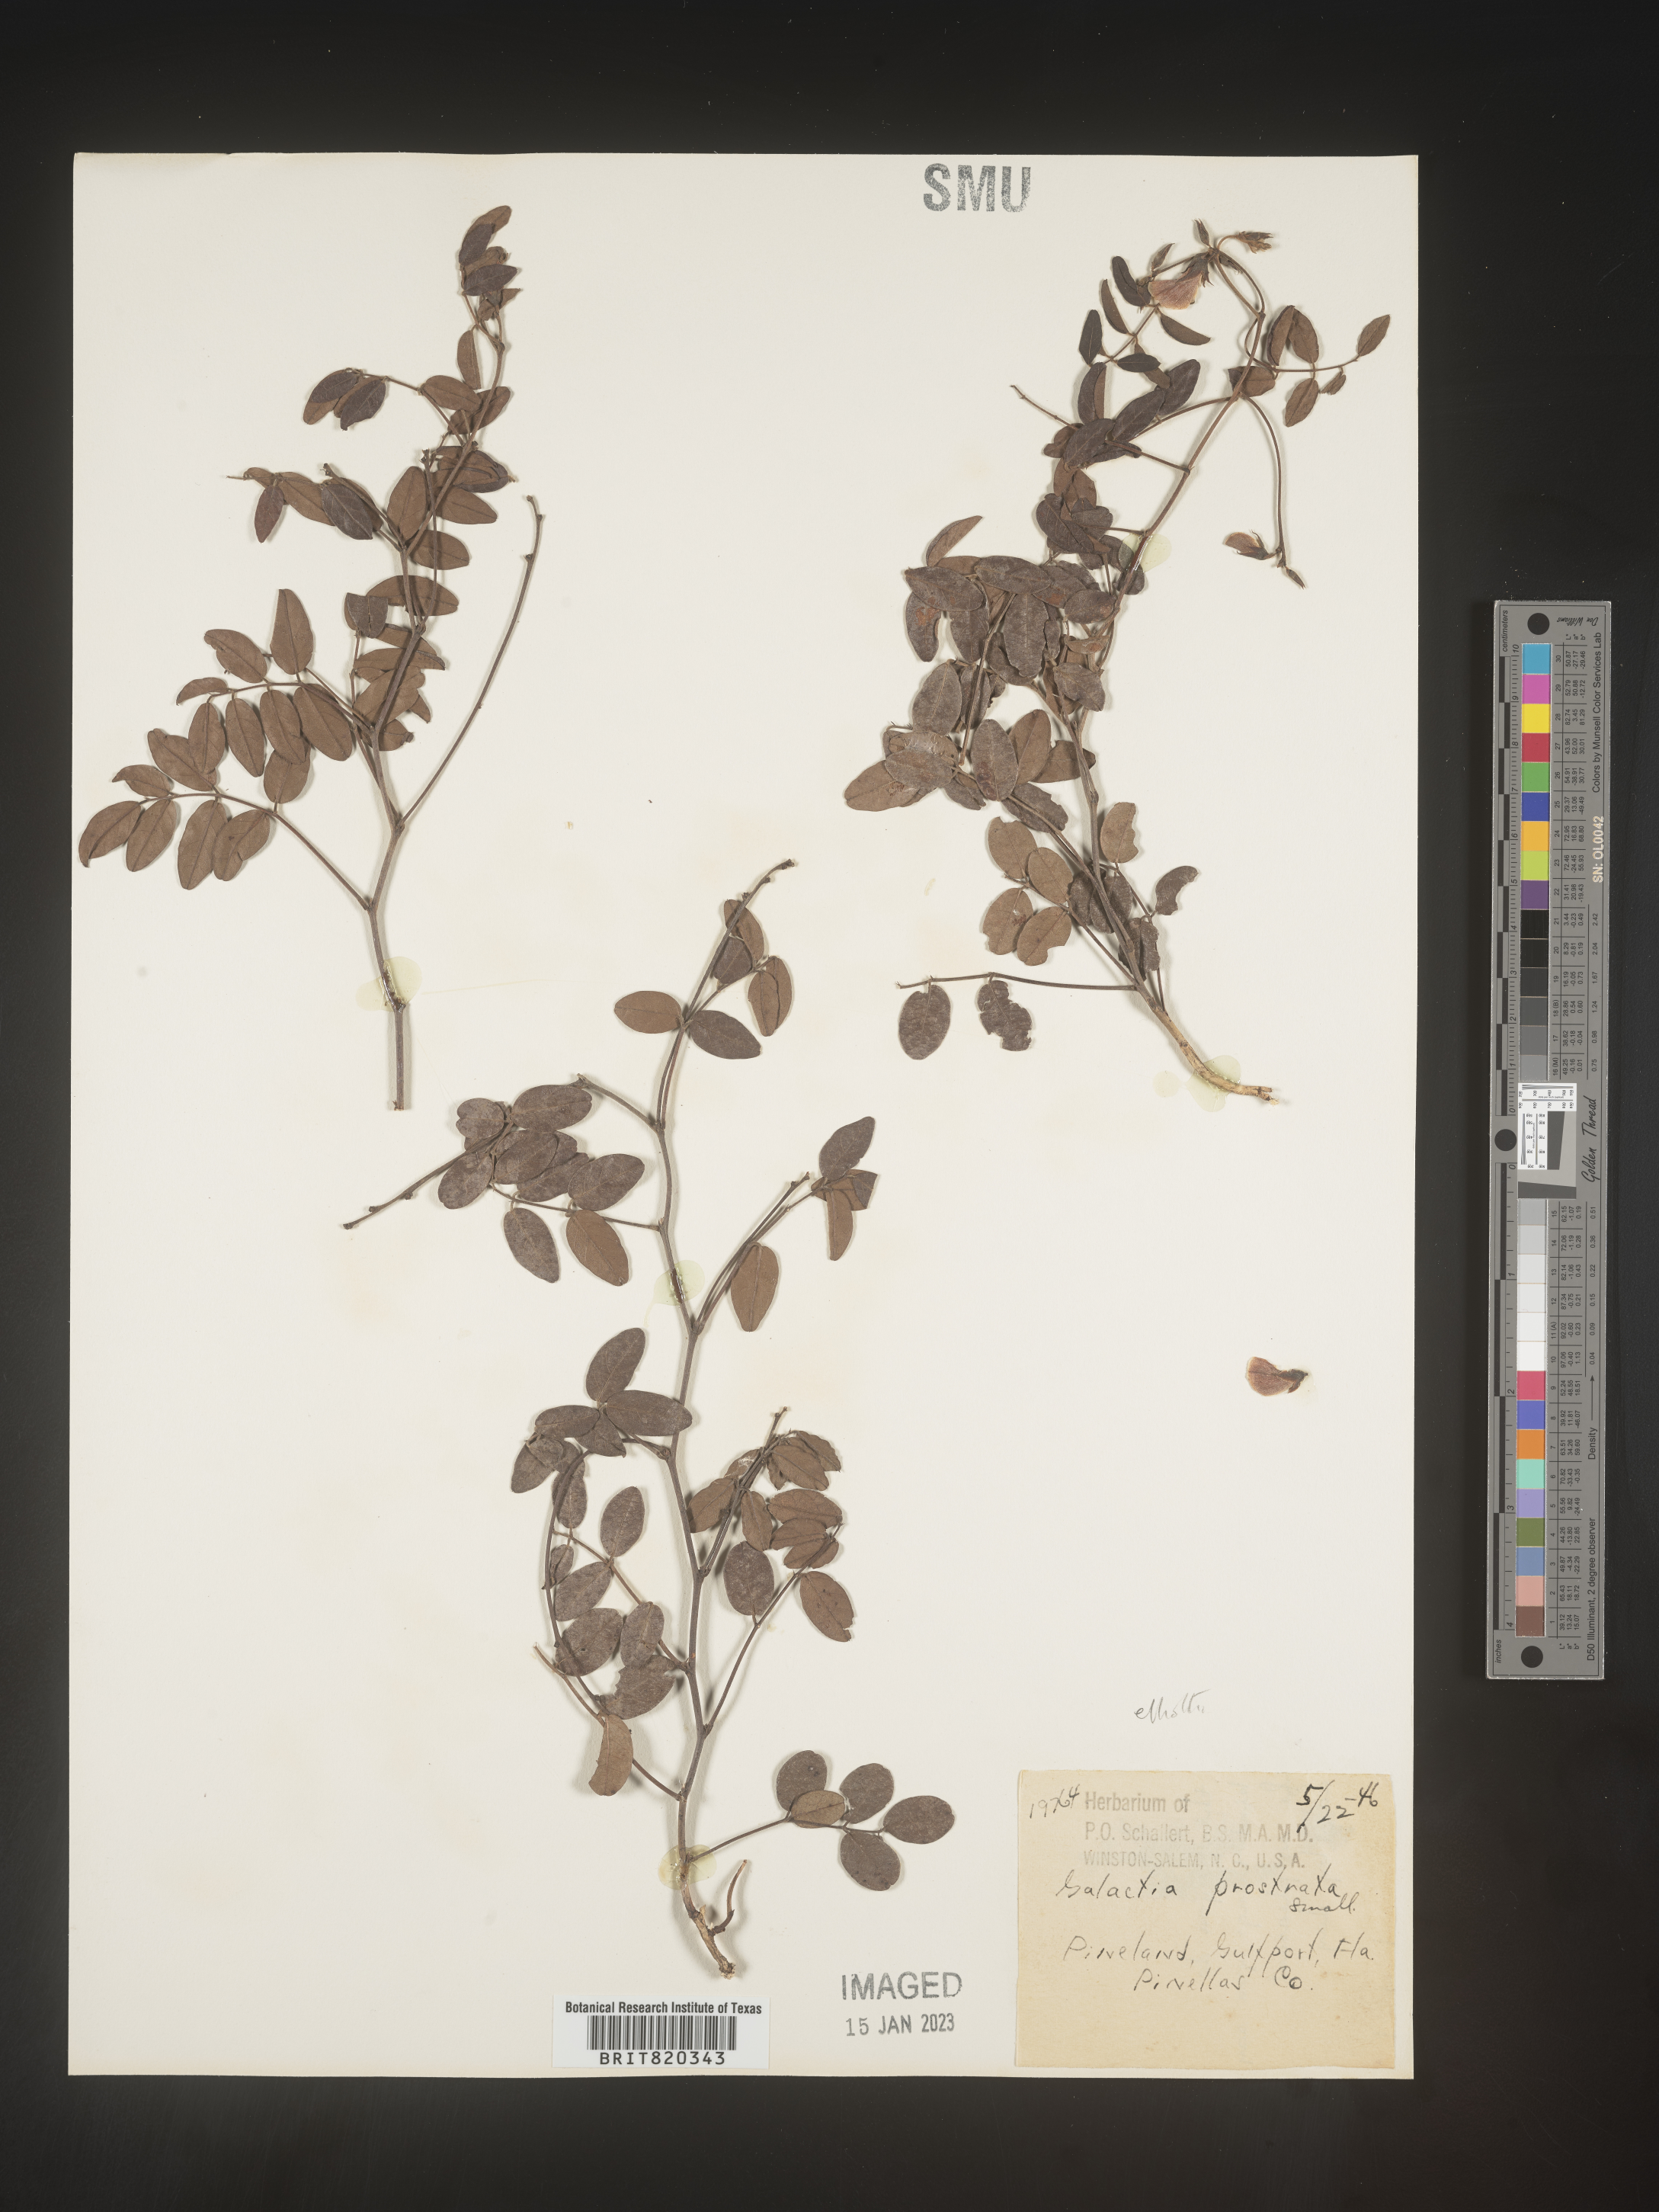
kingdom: Plantae
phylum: Tracheophyta
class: Magnoliopsida
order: Fabales
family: Fabaceae
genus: Galactia
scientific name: Galactia elliottii
